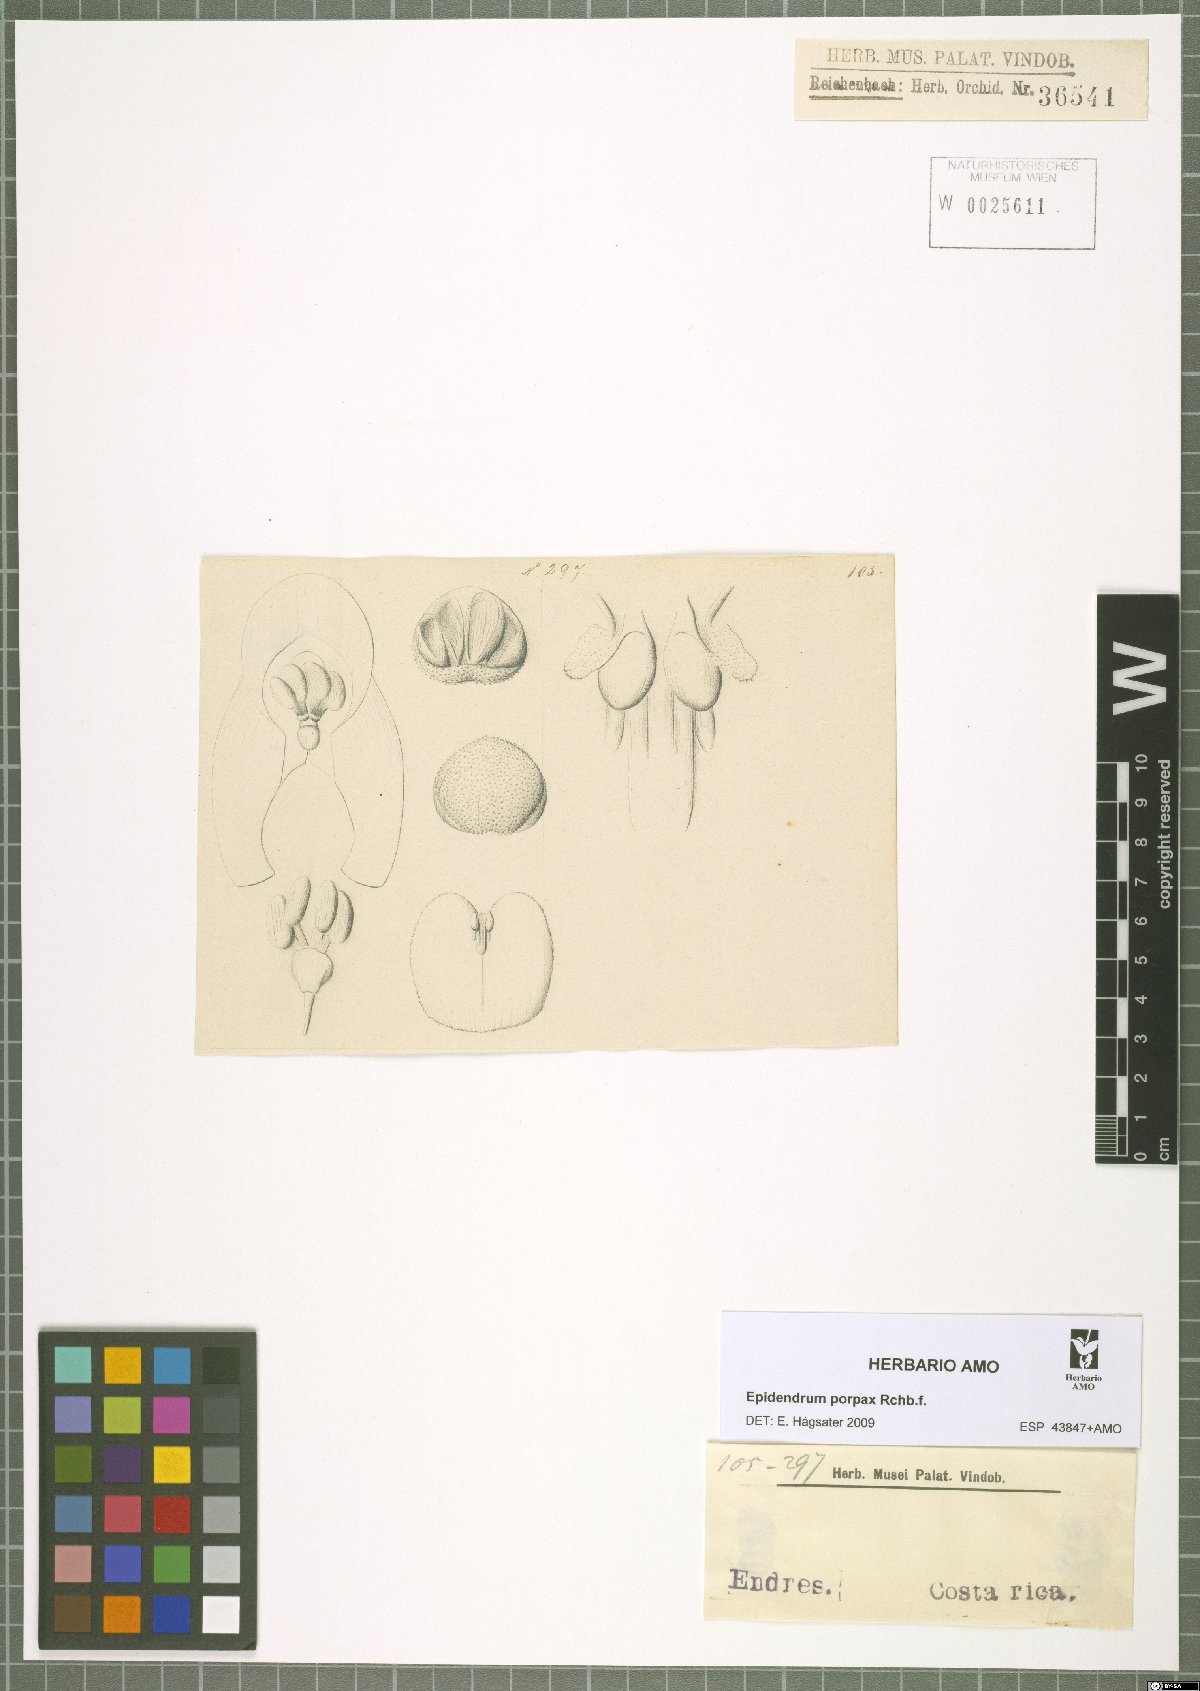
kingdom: Plantae
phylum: Tracheophyta
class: Liliopsida
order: Asparagales
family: Orchidaceae
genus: Epidendrum
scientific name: Epidendrum porpax
